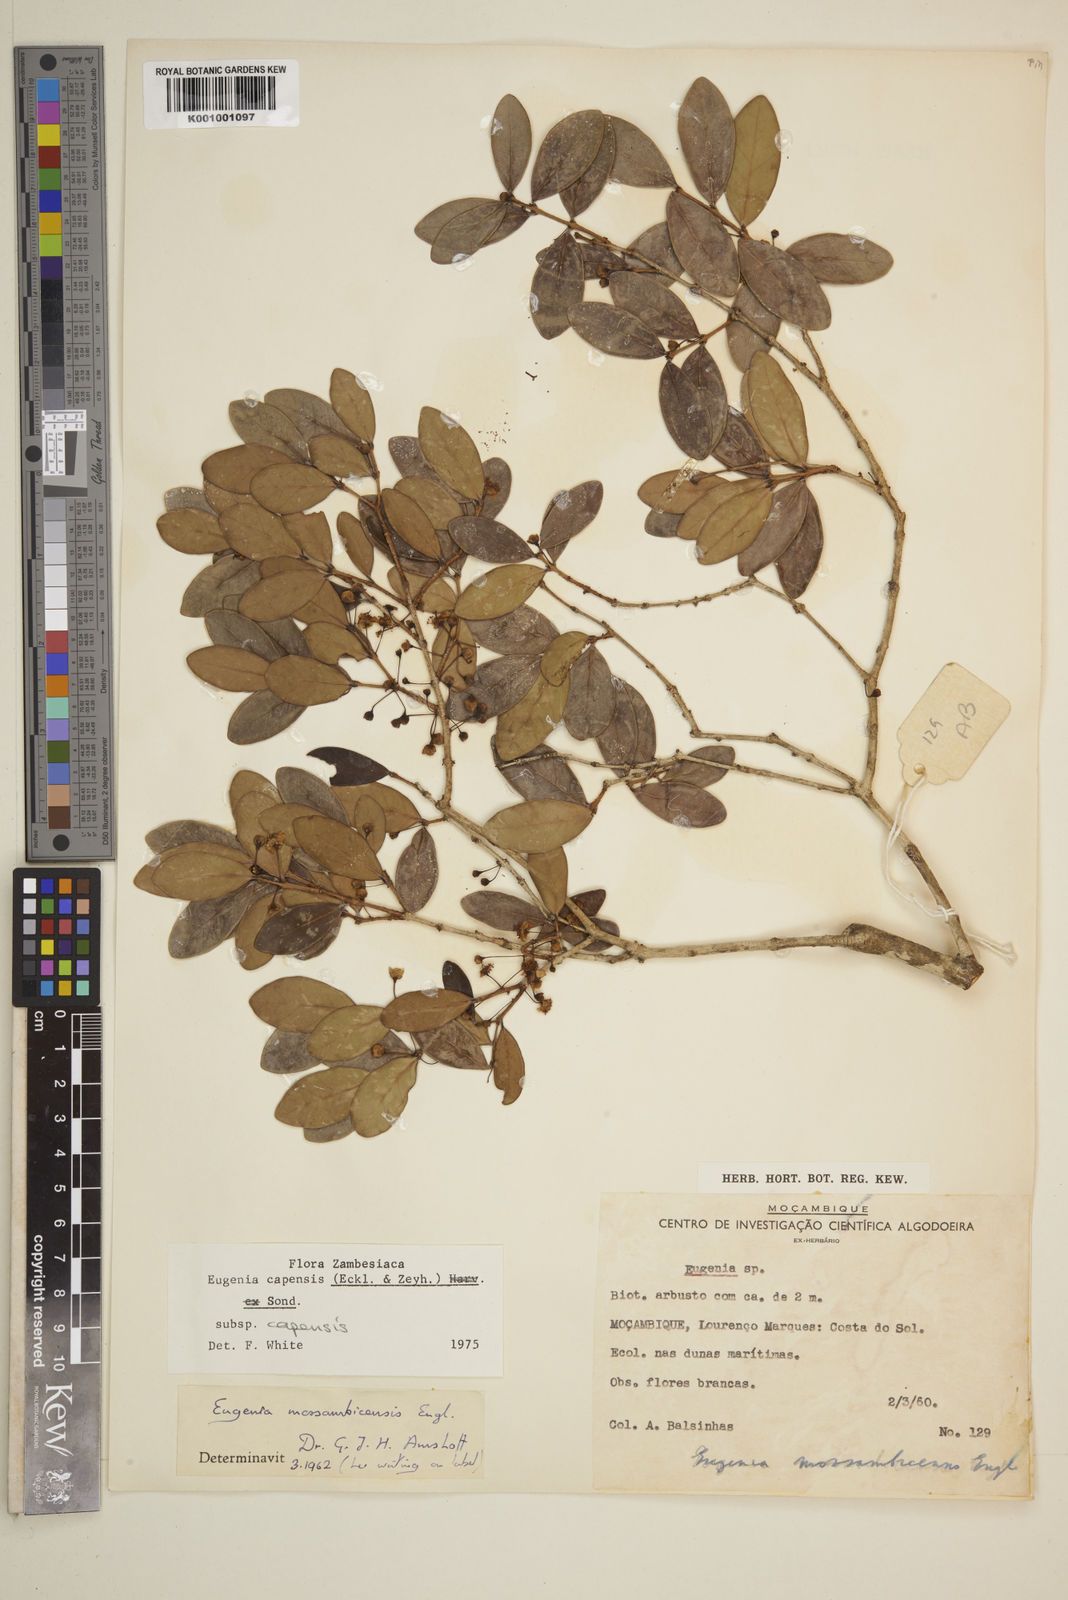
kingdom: Plantae
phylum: Tracheophyta
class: Magnoliopsida
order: Myrtales
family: Myrtaceae
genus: Eugenia
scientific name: Eugenia capensis
